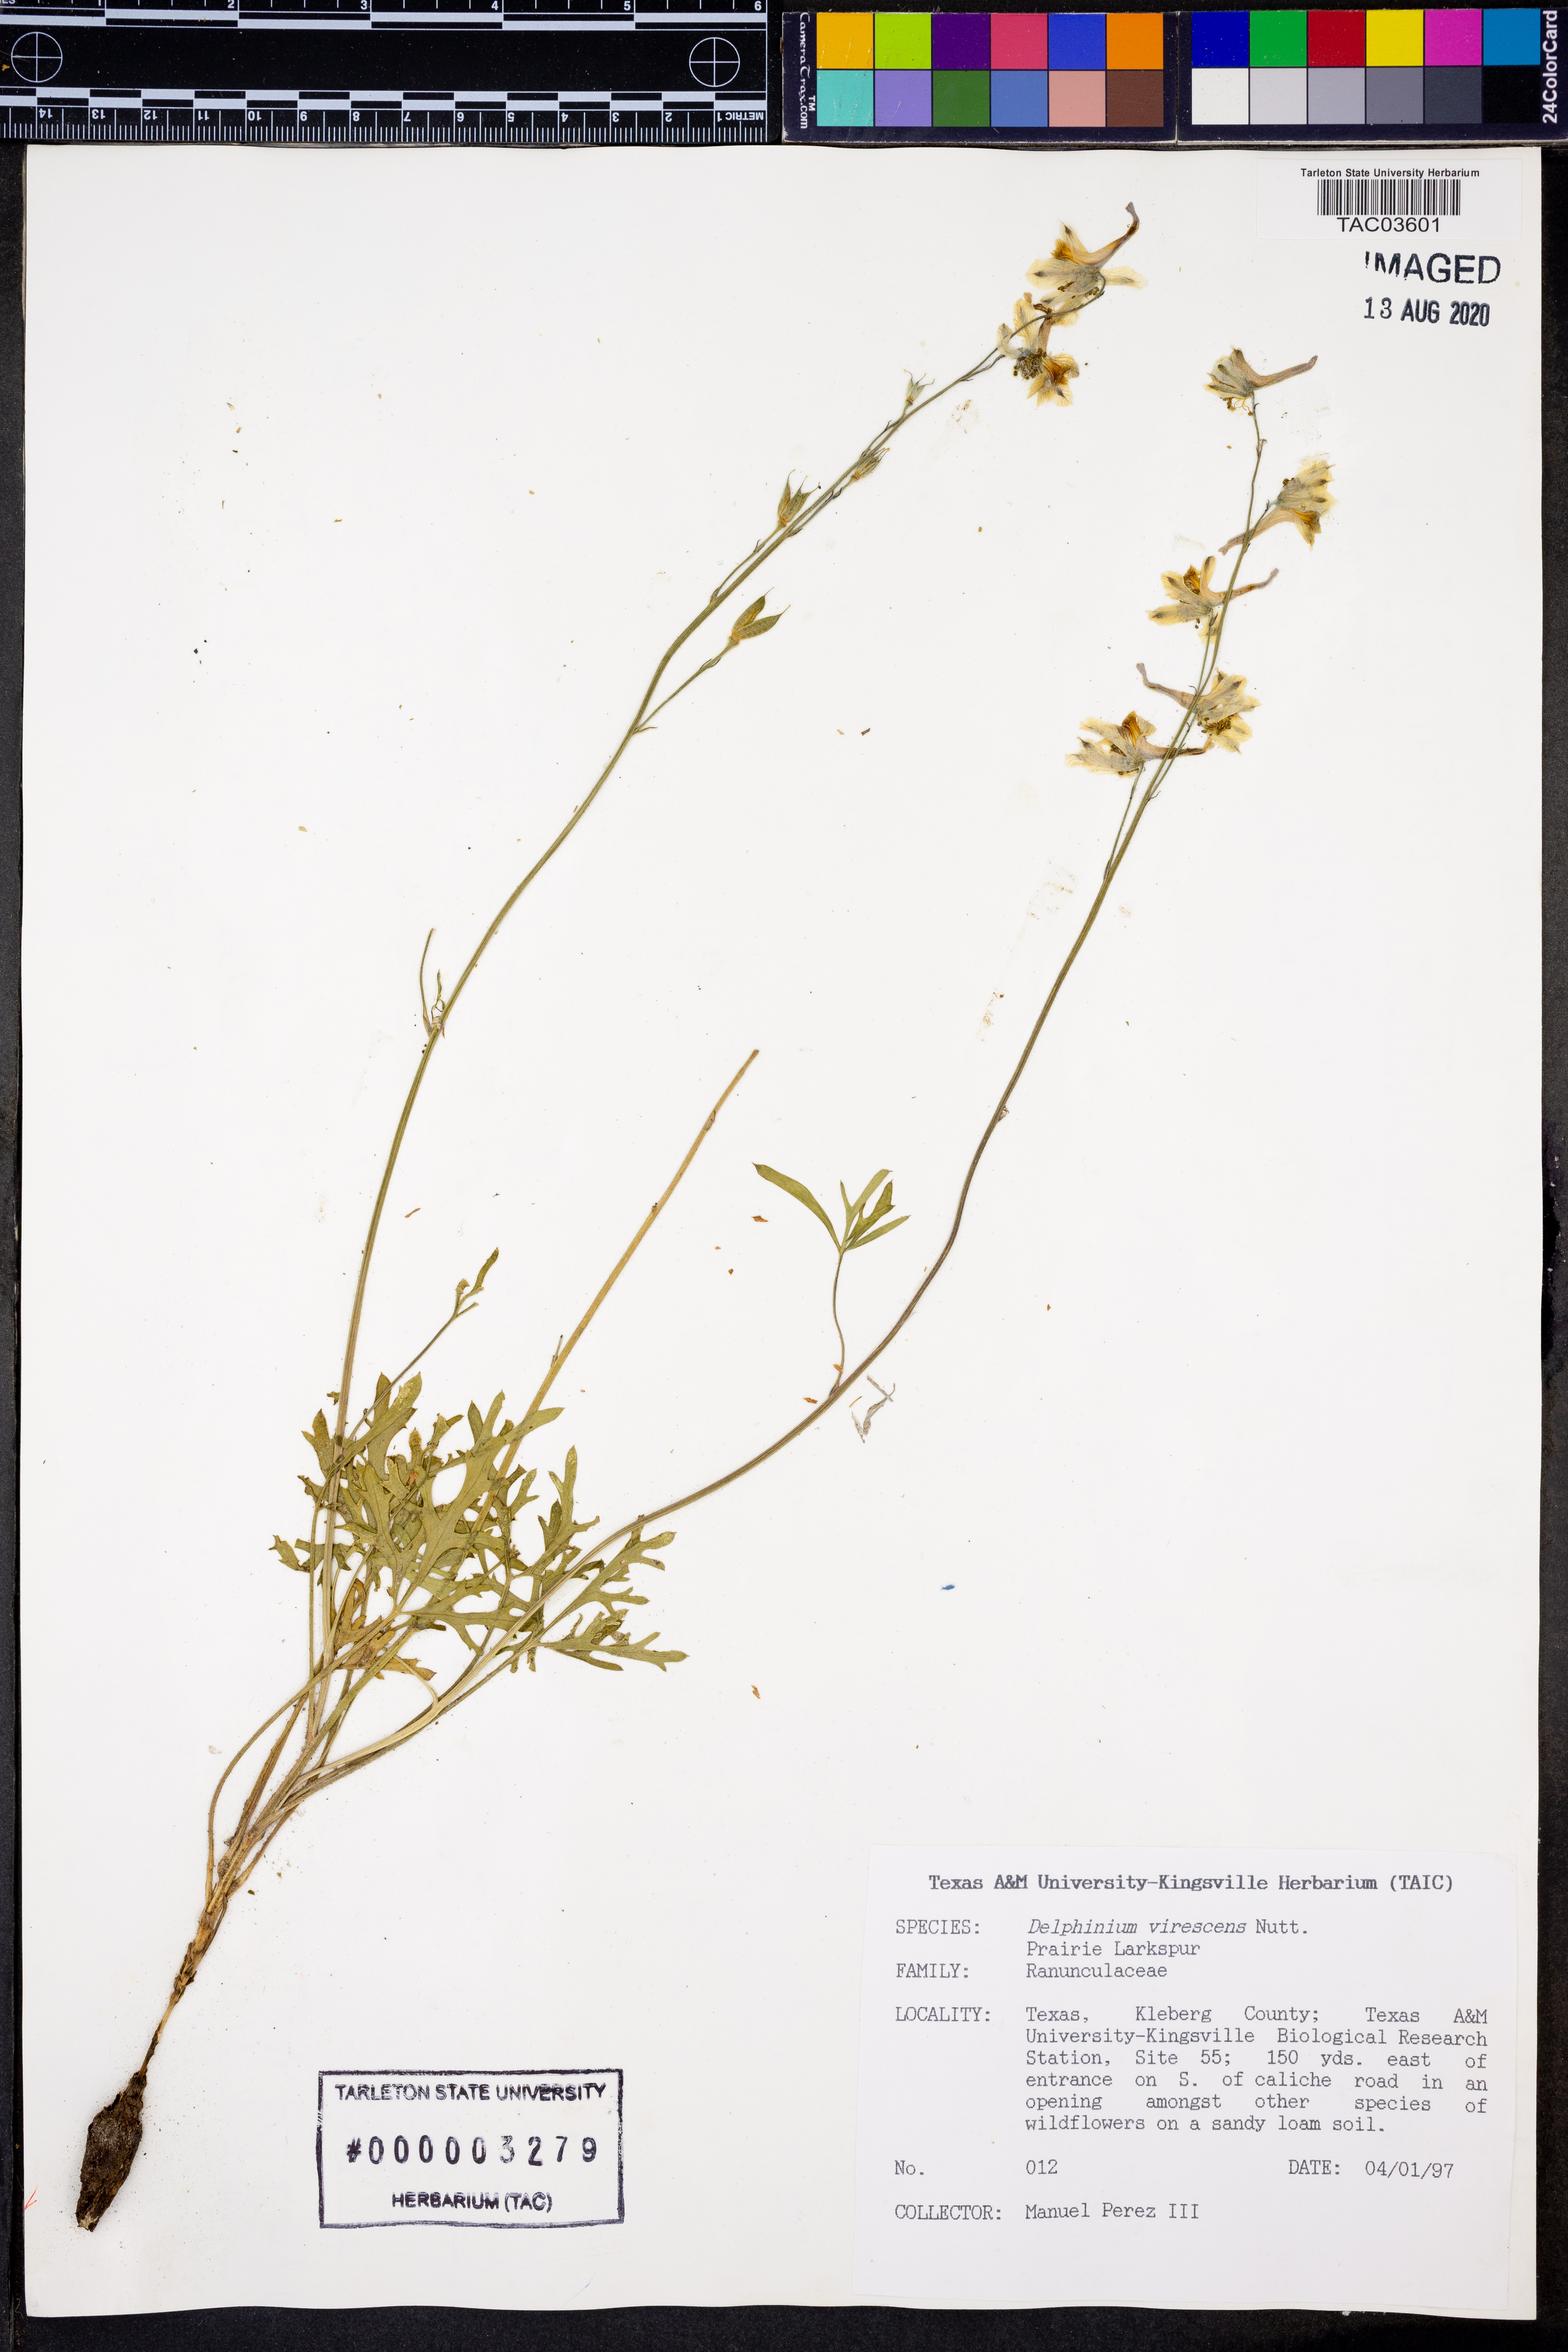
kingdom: Plantae
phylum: Tracheophyta
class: Magnoliopsida
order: Ranunculales
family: Ranunculaceae
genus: Delphinium
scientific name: Delphinium carolinianum
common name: Carolina larkspur
